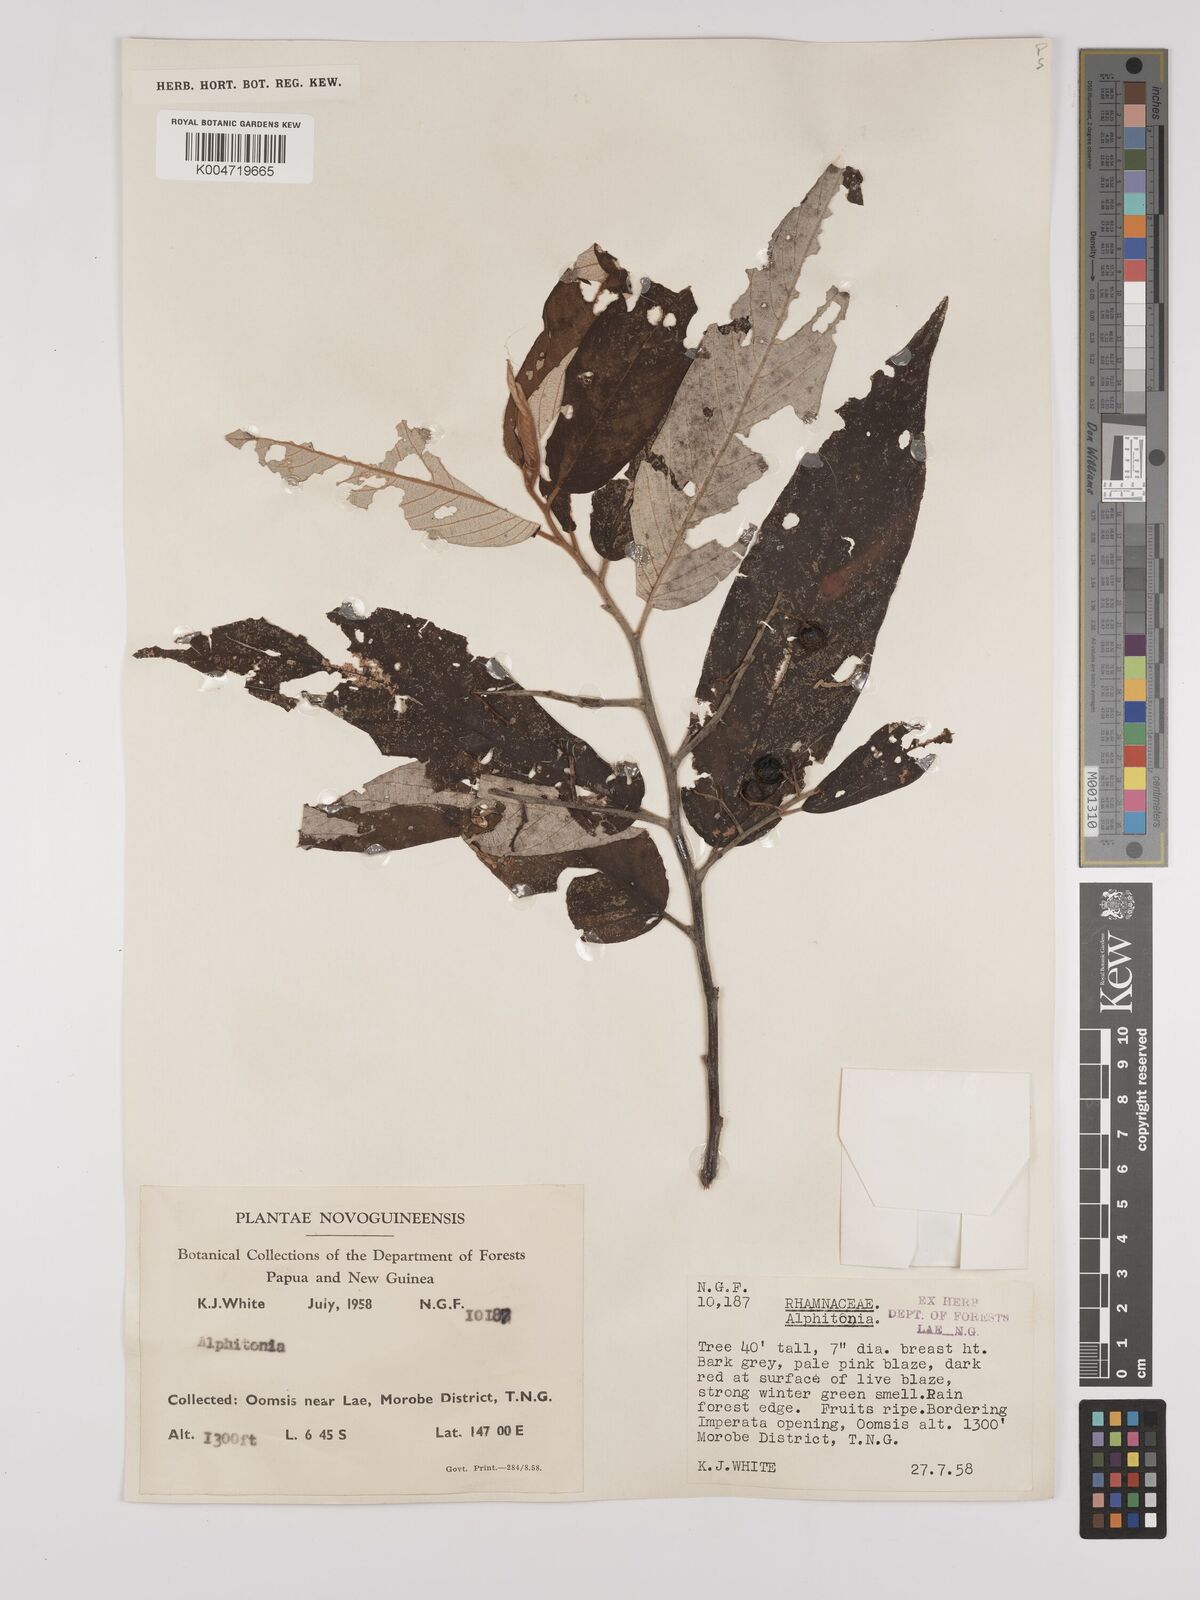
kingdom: Plantae
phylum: Tracheophyta
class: Magnoliopsida
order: Rosales
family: Rhamnaceae
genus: Alphitonia
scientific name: Alphitonia
